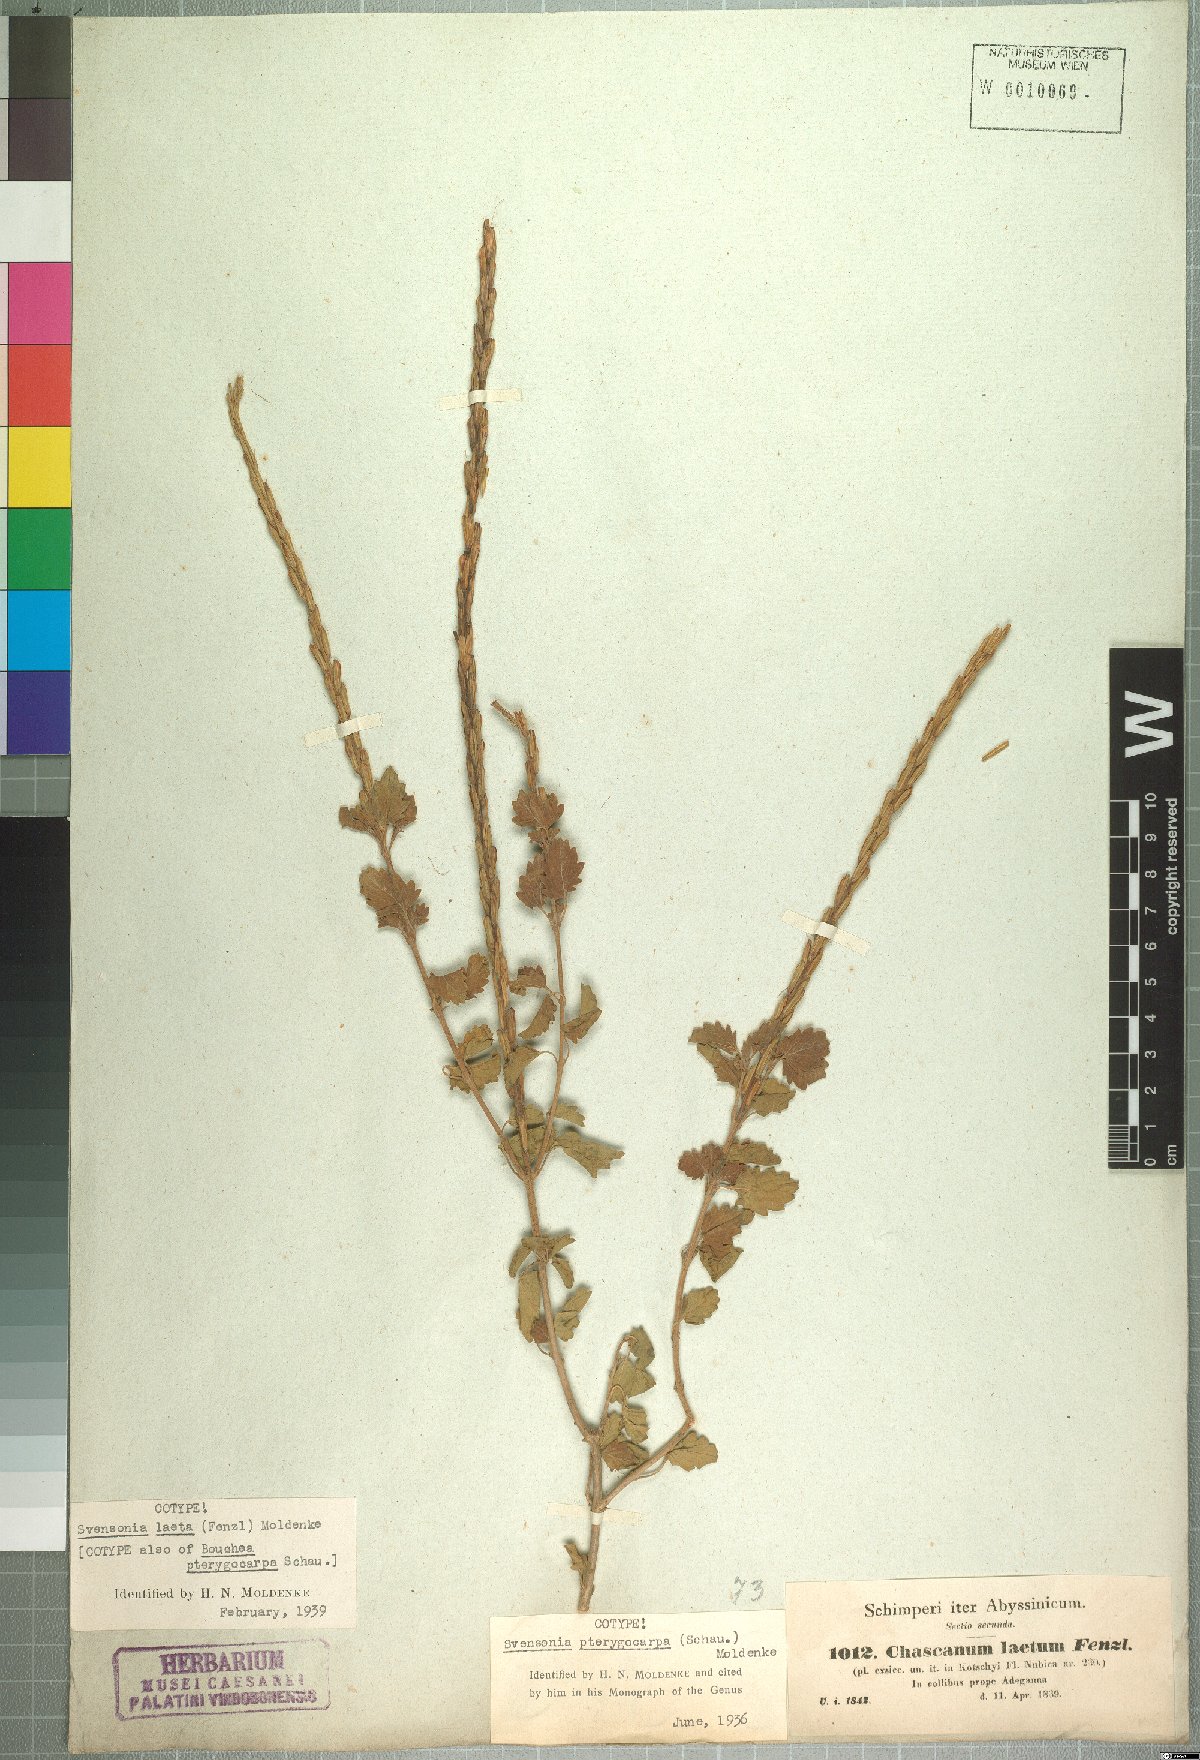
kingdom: Plantae
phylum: Tracheophyta
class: Magnoliopsida
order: Lamiales
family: Verbenaceae
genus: Chascanum
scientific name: Chascanum laetum
